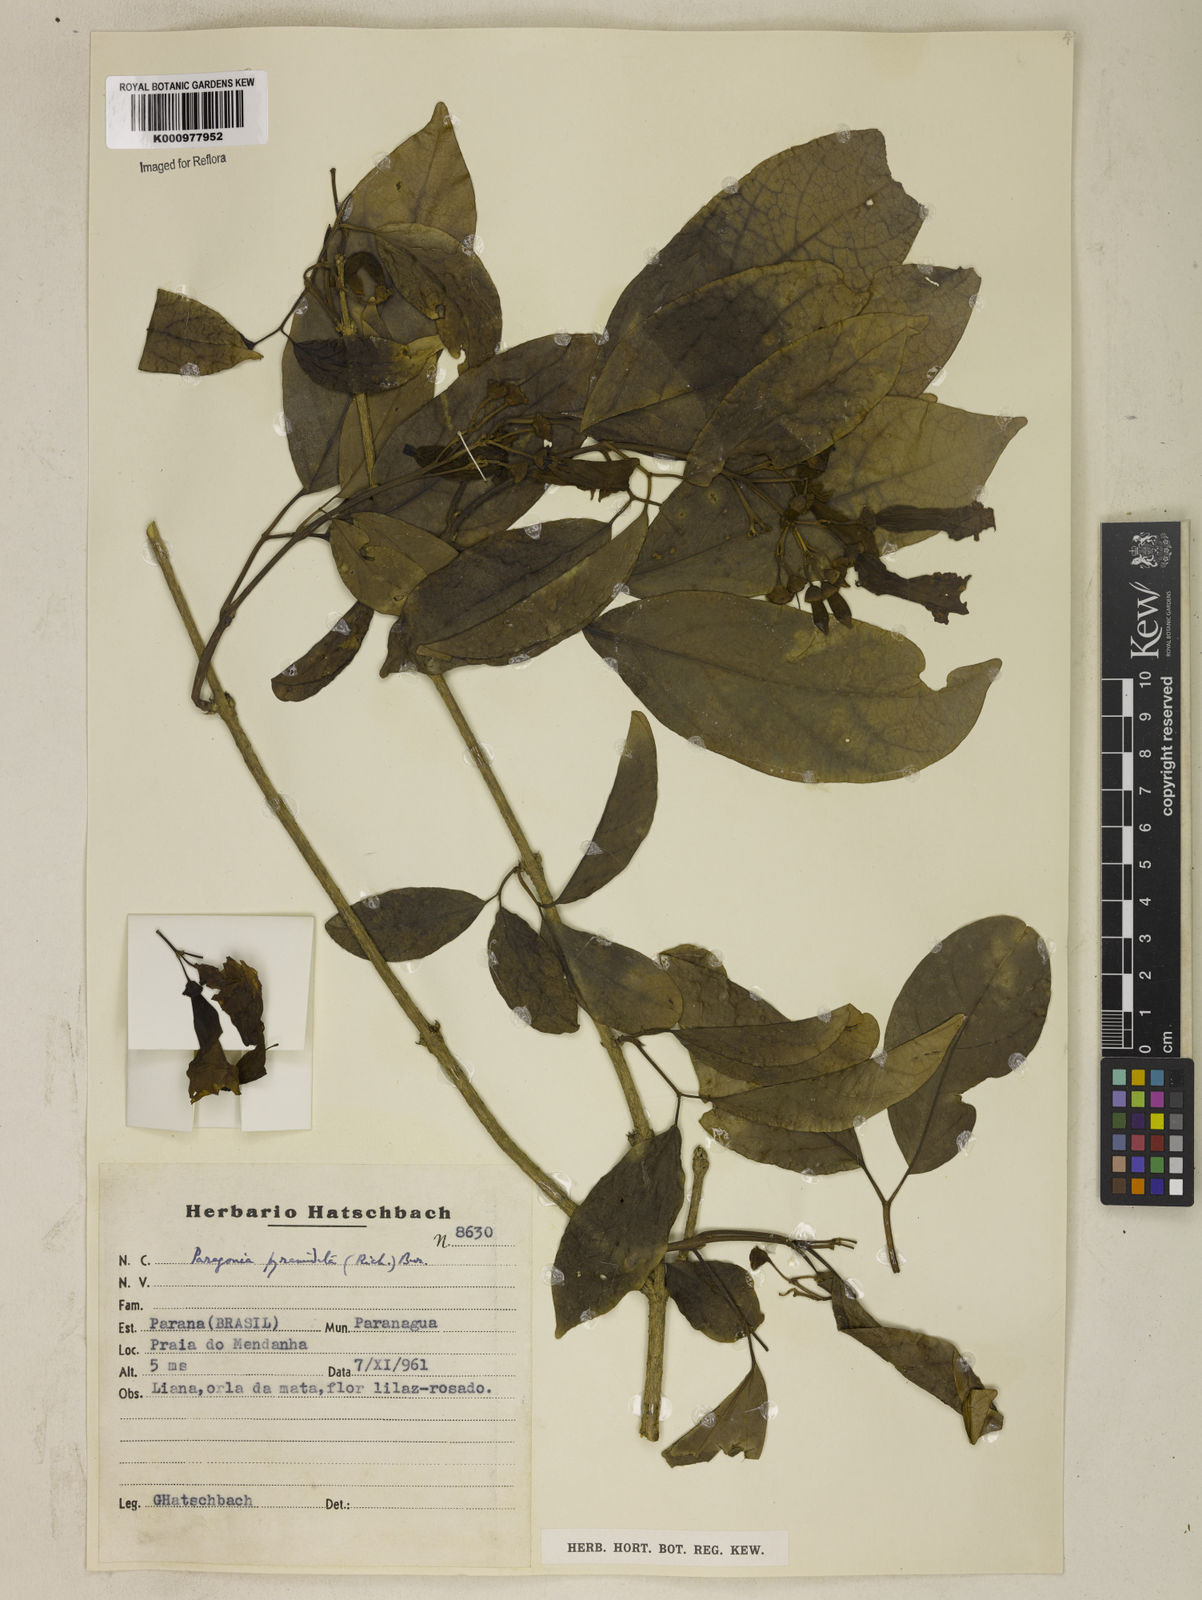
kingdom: Plantae
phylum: Tracheophyta
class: Magnoliopsida
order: Lamiales
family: Bignoniaceae
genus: Tanaecium
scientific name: Tanaecium pyramidatum
